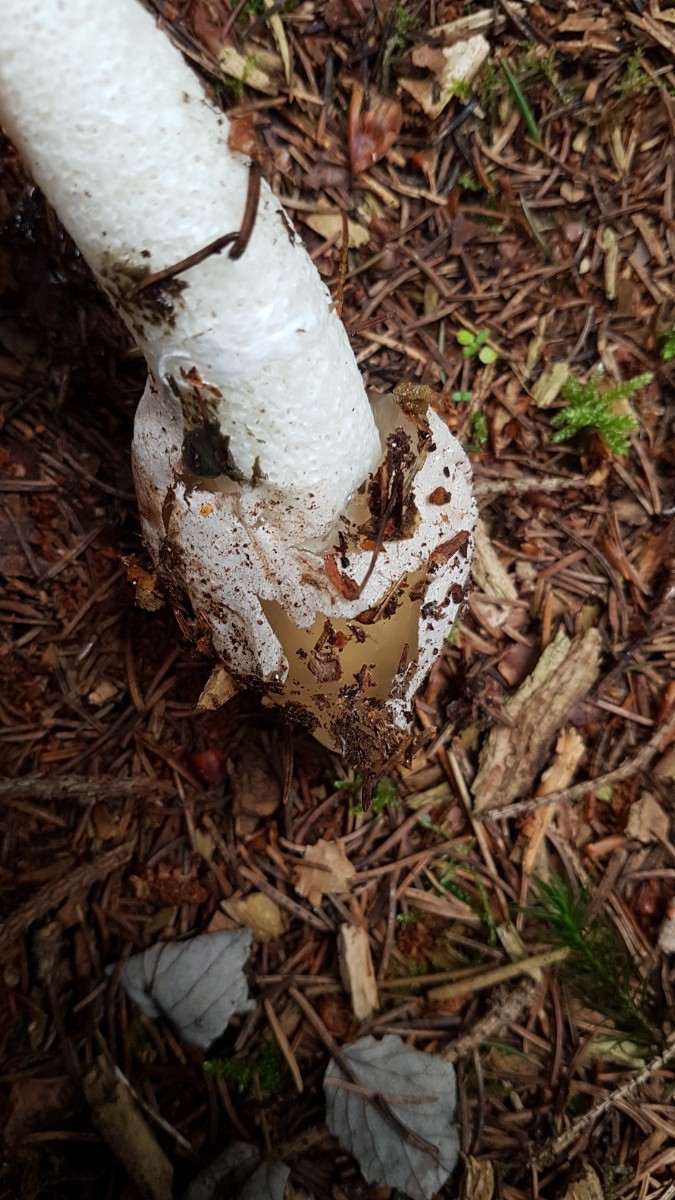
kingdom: Fungi
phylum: Basidiomycota
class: Agaricomycetes
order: Phallales
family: Phallaceae
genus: Phallus
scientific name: Phallus impudicus
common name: almindelig stinksvamp
